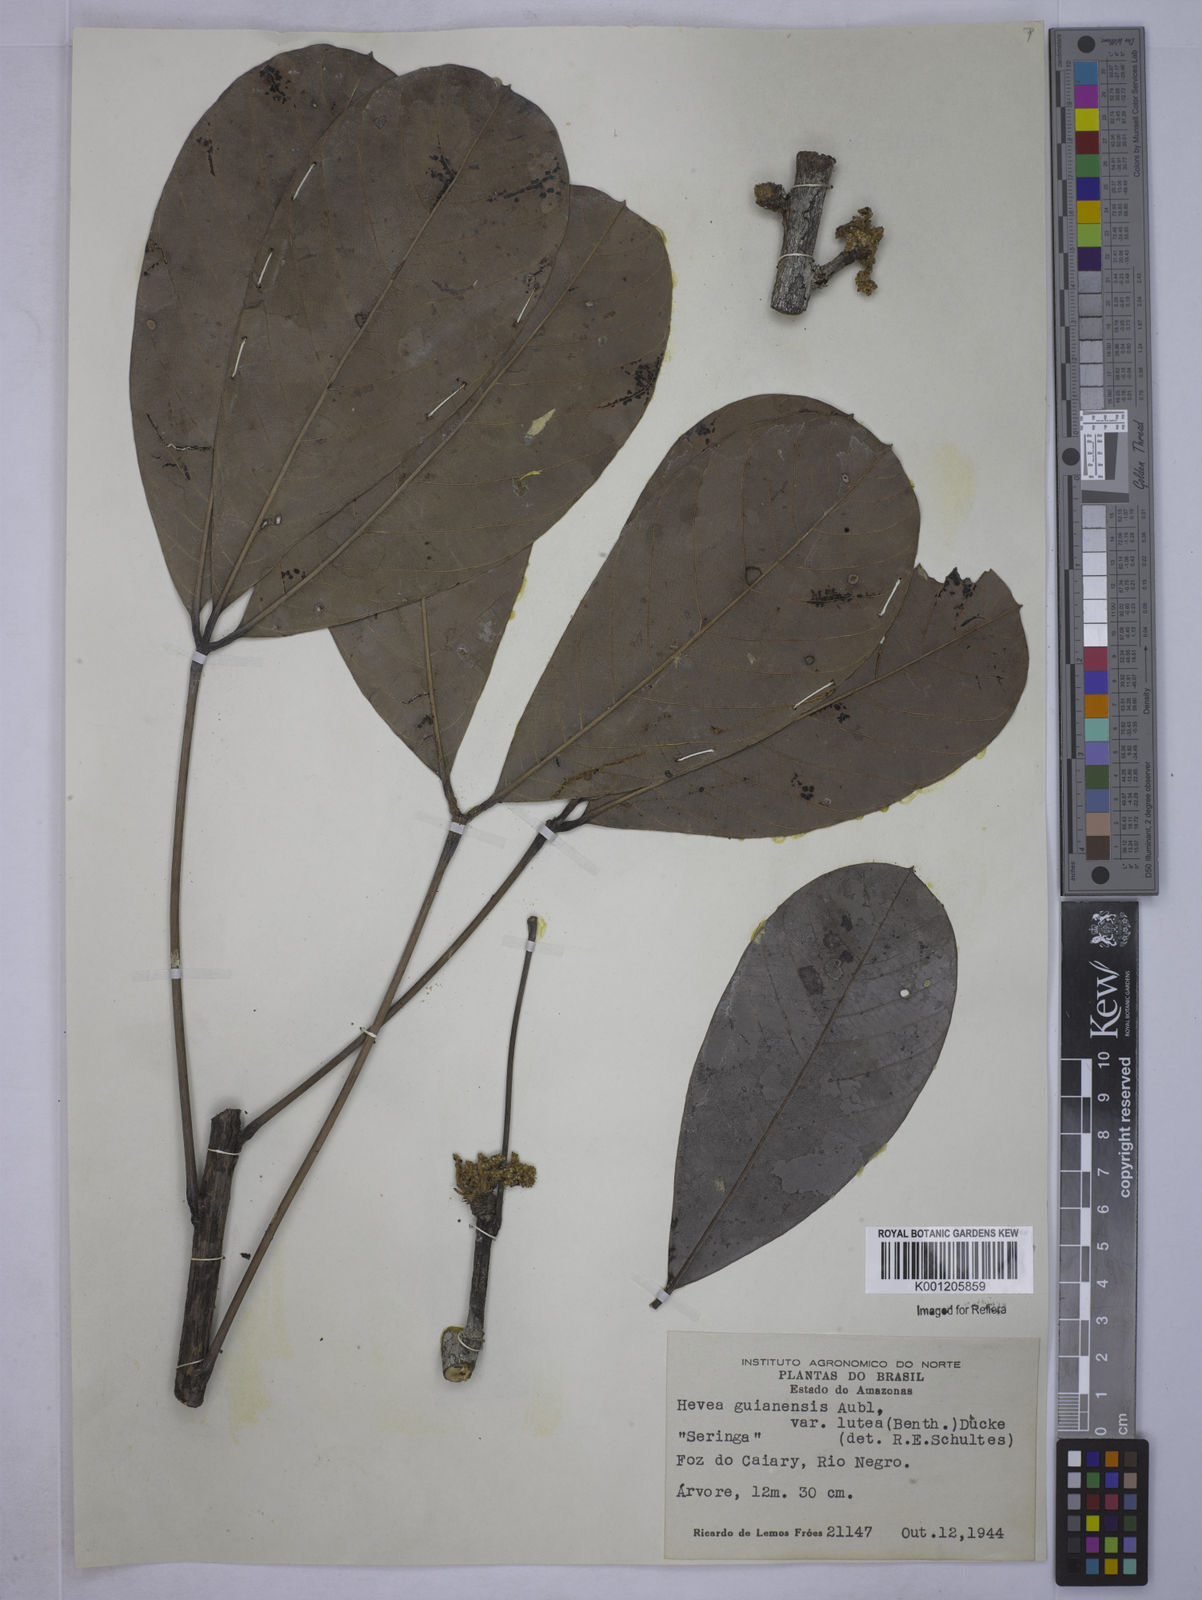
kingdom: Plantae
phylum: Tracheophyta
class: Magnoliopsida
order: Malpighiales
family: Euphorbiaceae
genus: Hevea
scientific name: Hevea guianensis
